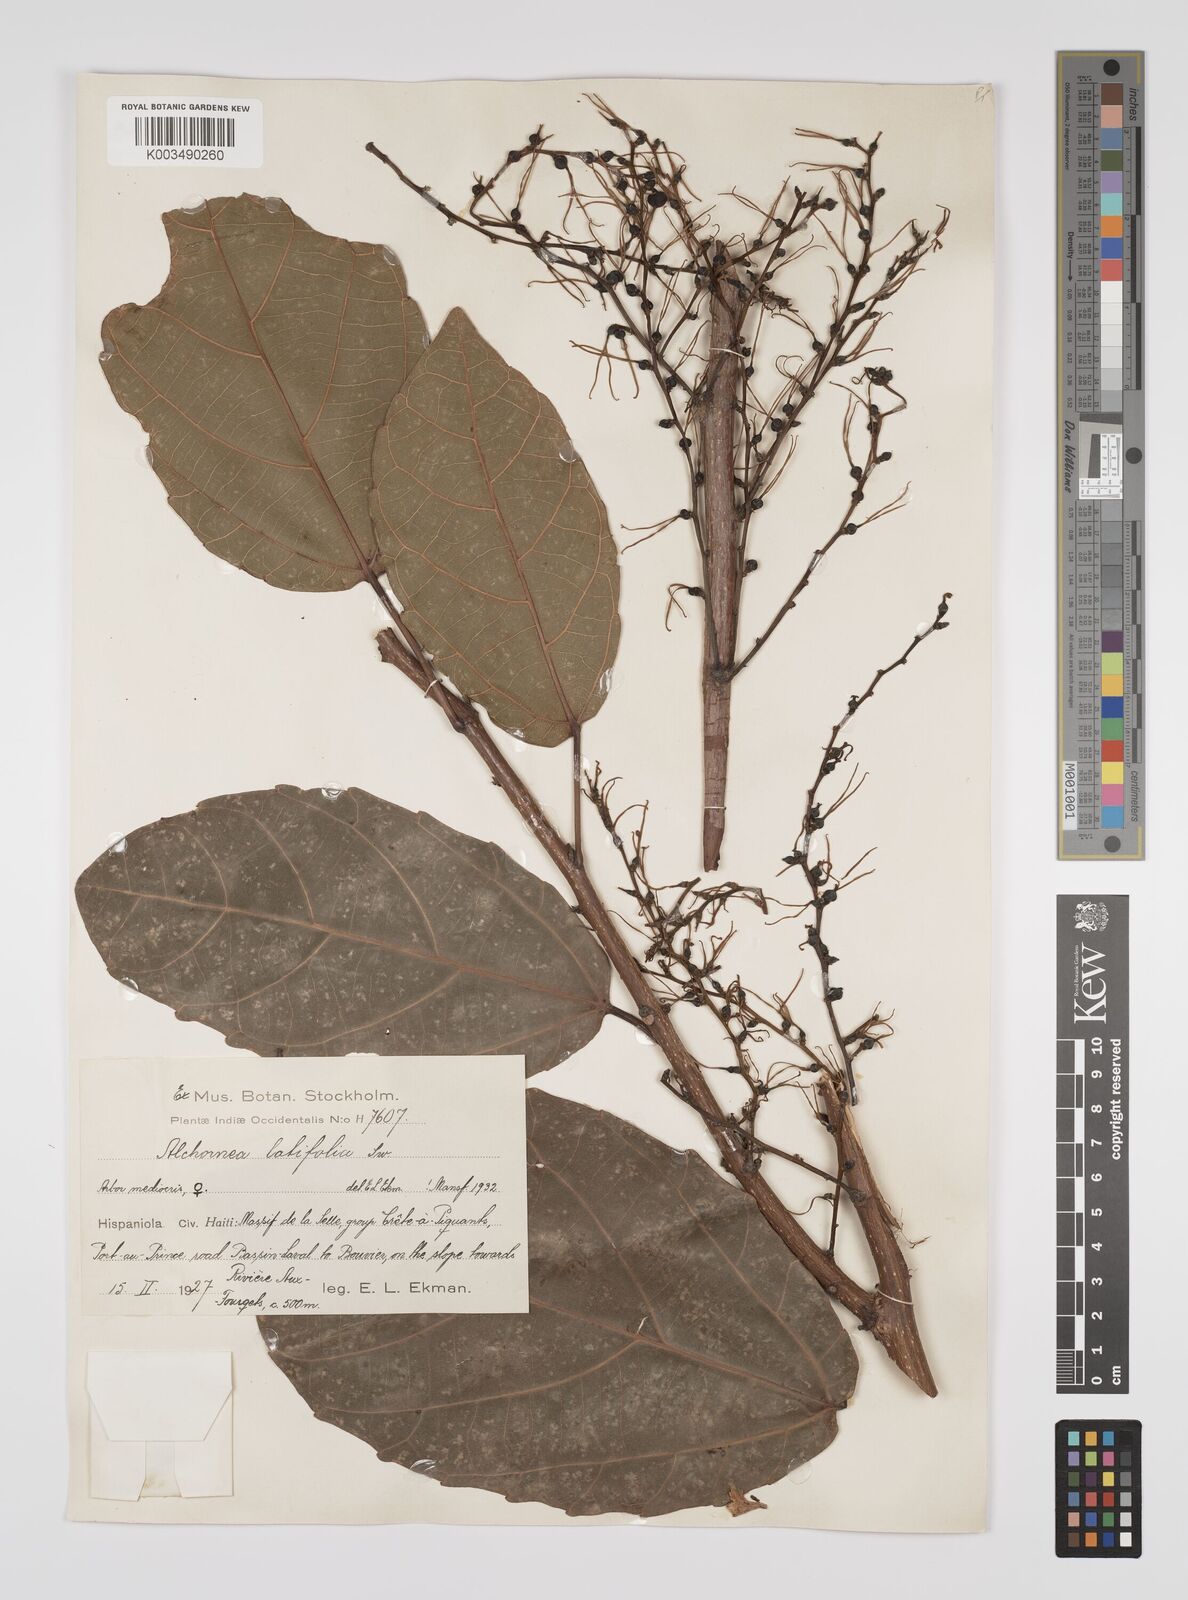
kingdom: Plantae
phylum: Tracheophyta
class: Magnoliopsida
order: Malpighiales
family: Euphorbiaceae
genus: Alchornea
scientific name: Alchornea latifolia
